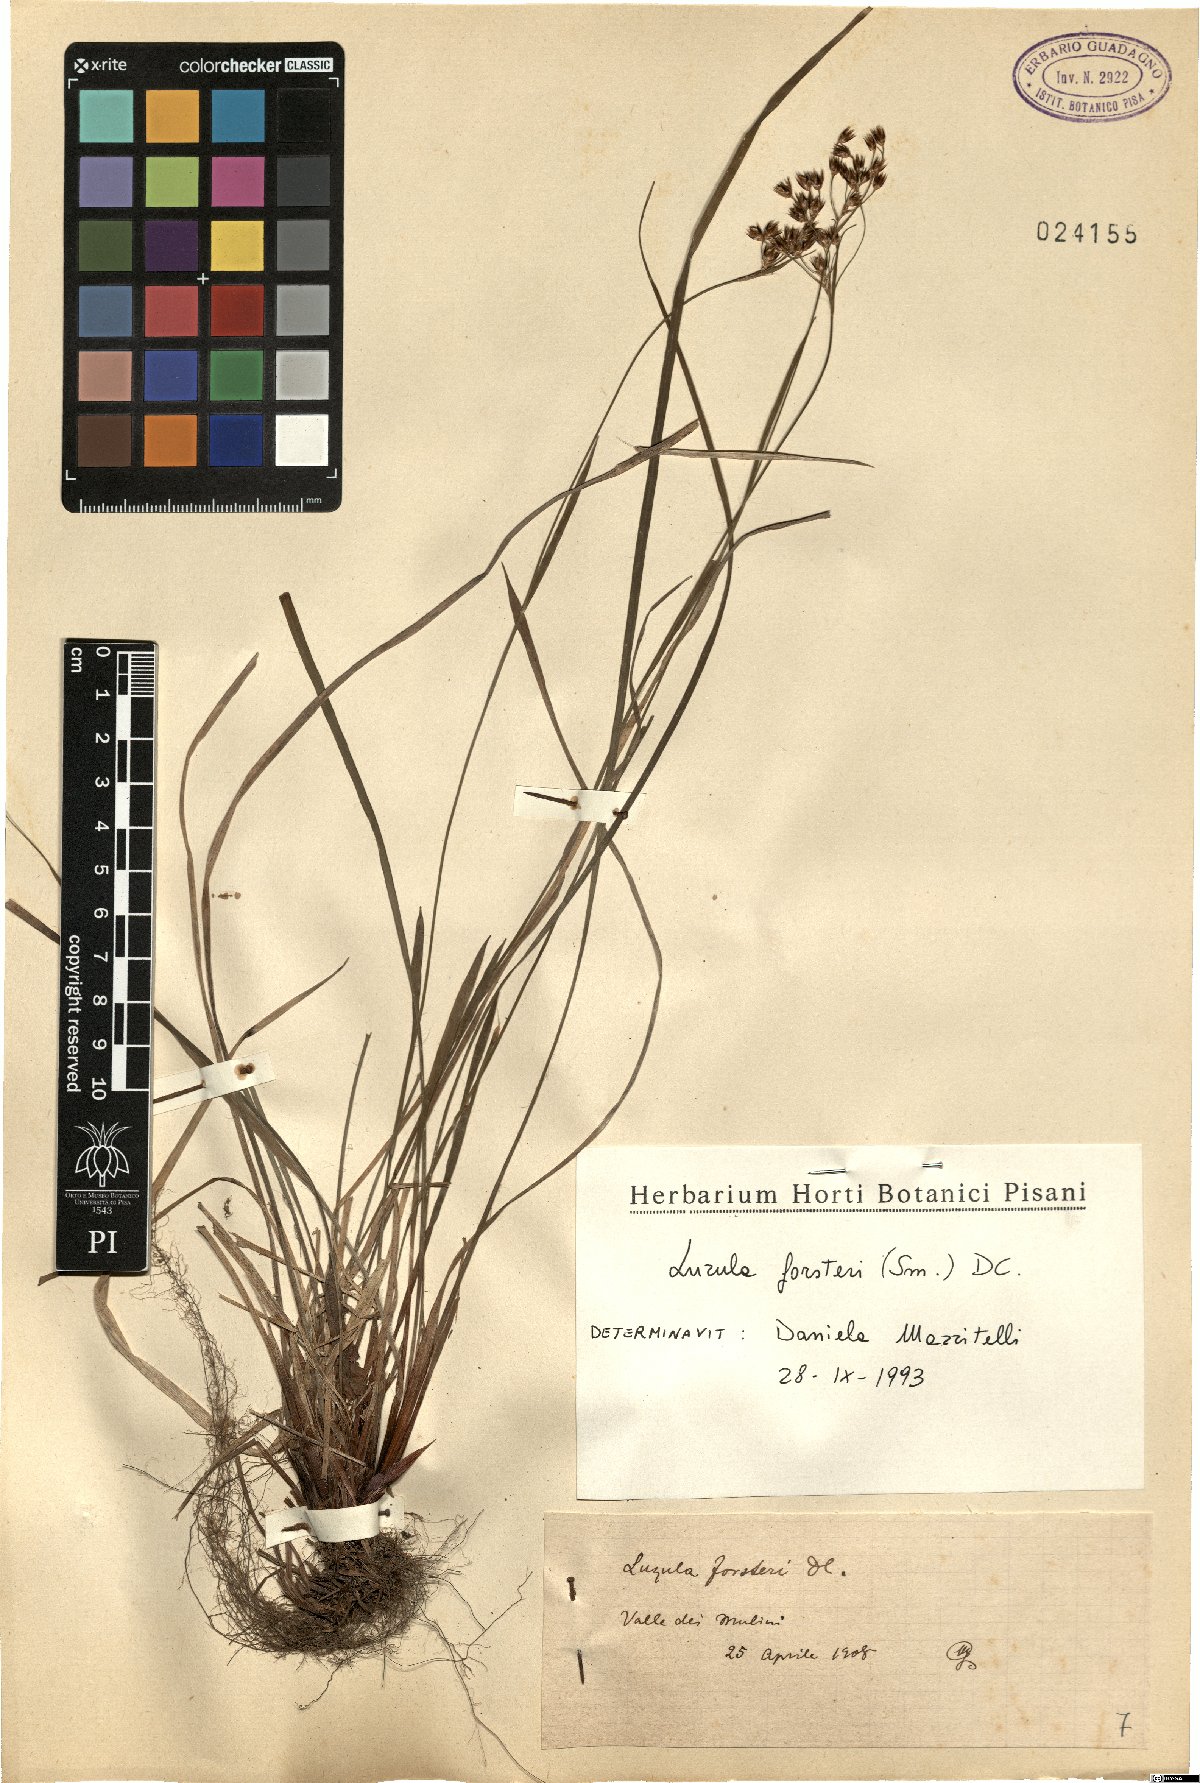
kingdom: Plantae
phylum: Tracheophyta
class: Liliopsida
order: Poales
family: Juncaceae
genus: Luzula
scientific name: Luzula forsteri
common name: Southern wood-rush
